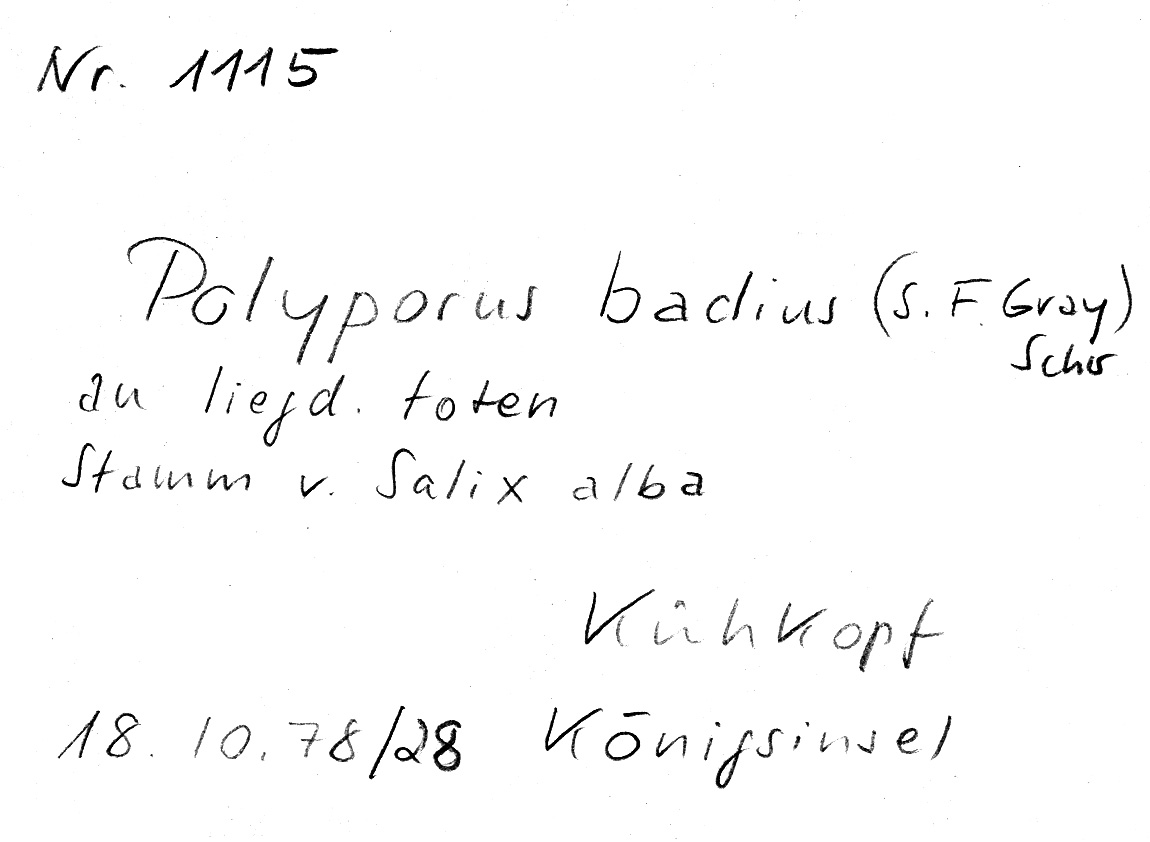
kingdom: Plantae
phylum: Tracheophyta
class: Magnoliopsida
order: Malpighiales
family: Salicaceae
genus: Salix
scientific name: Salix alba
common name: White willow
